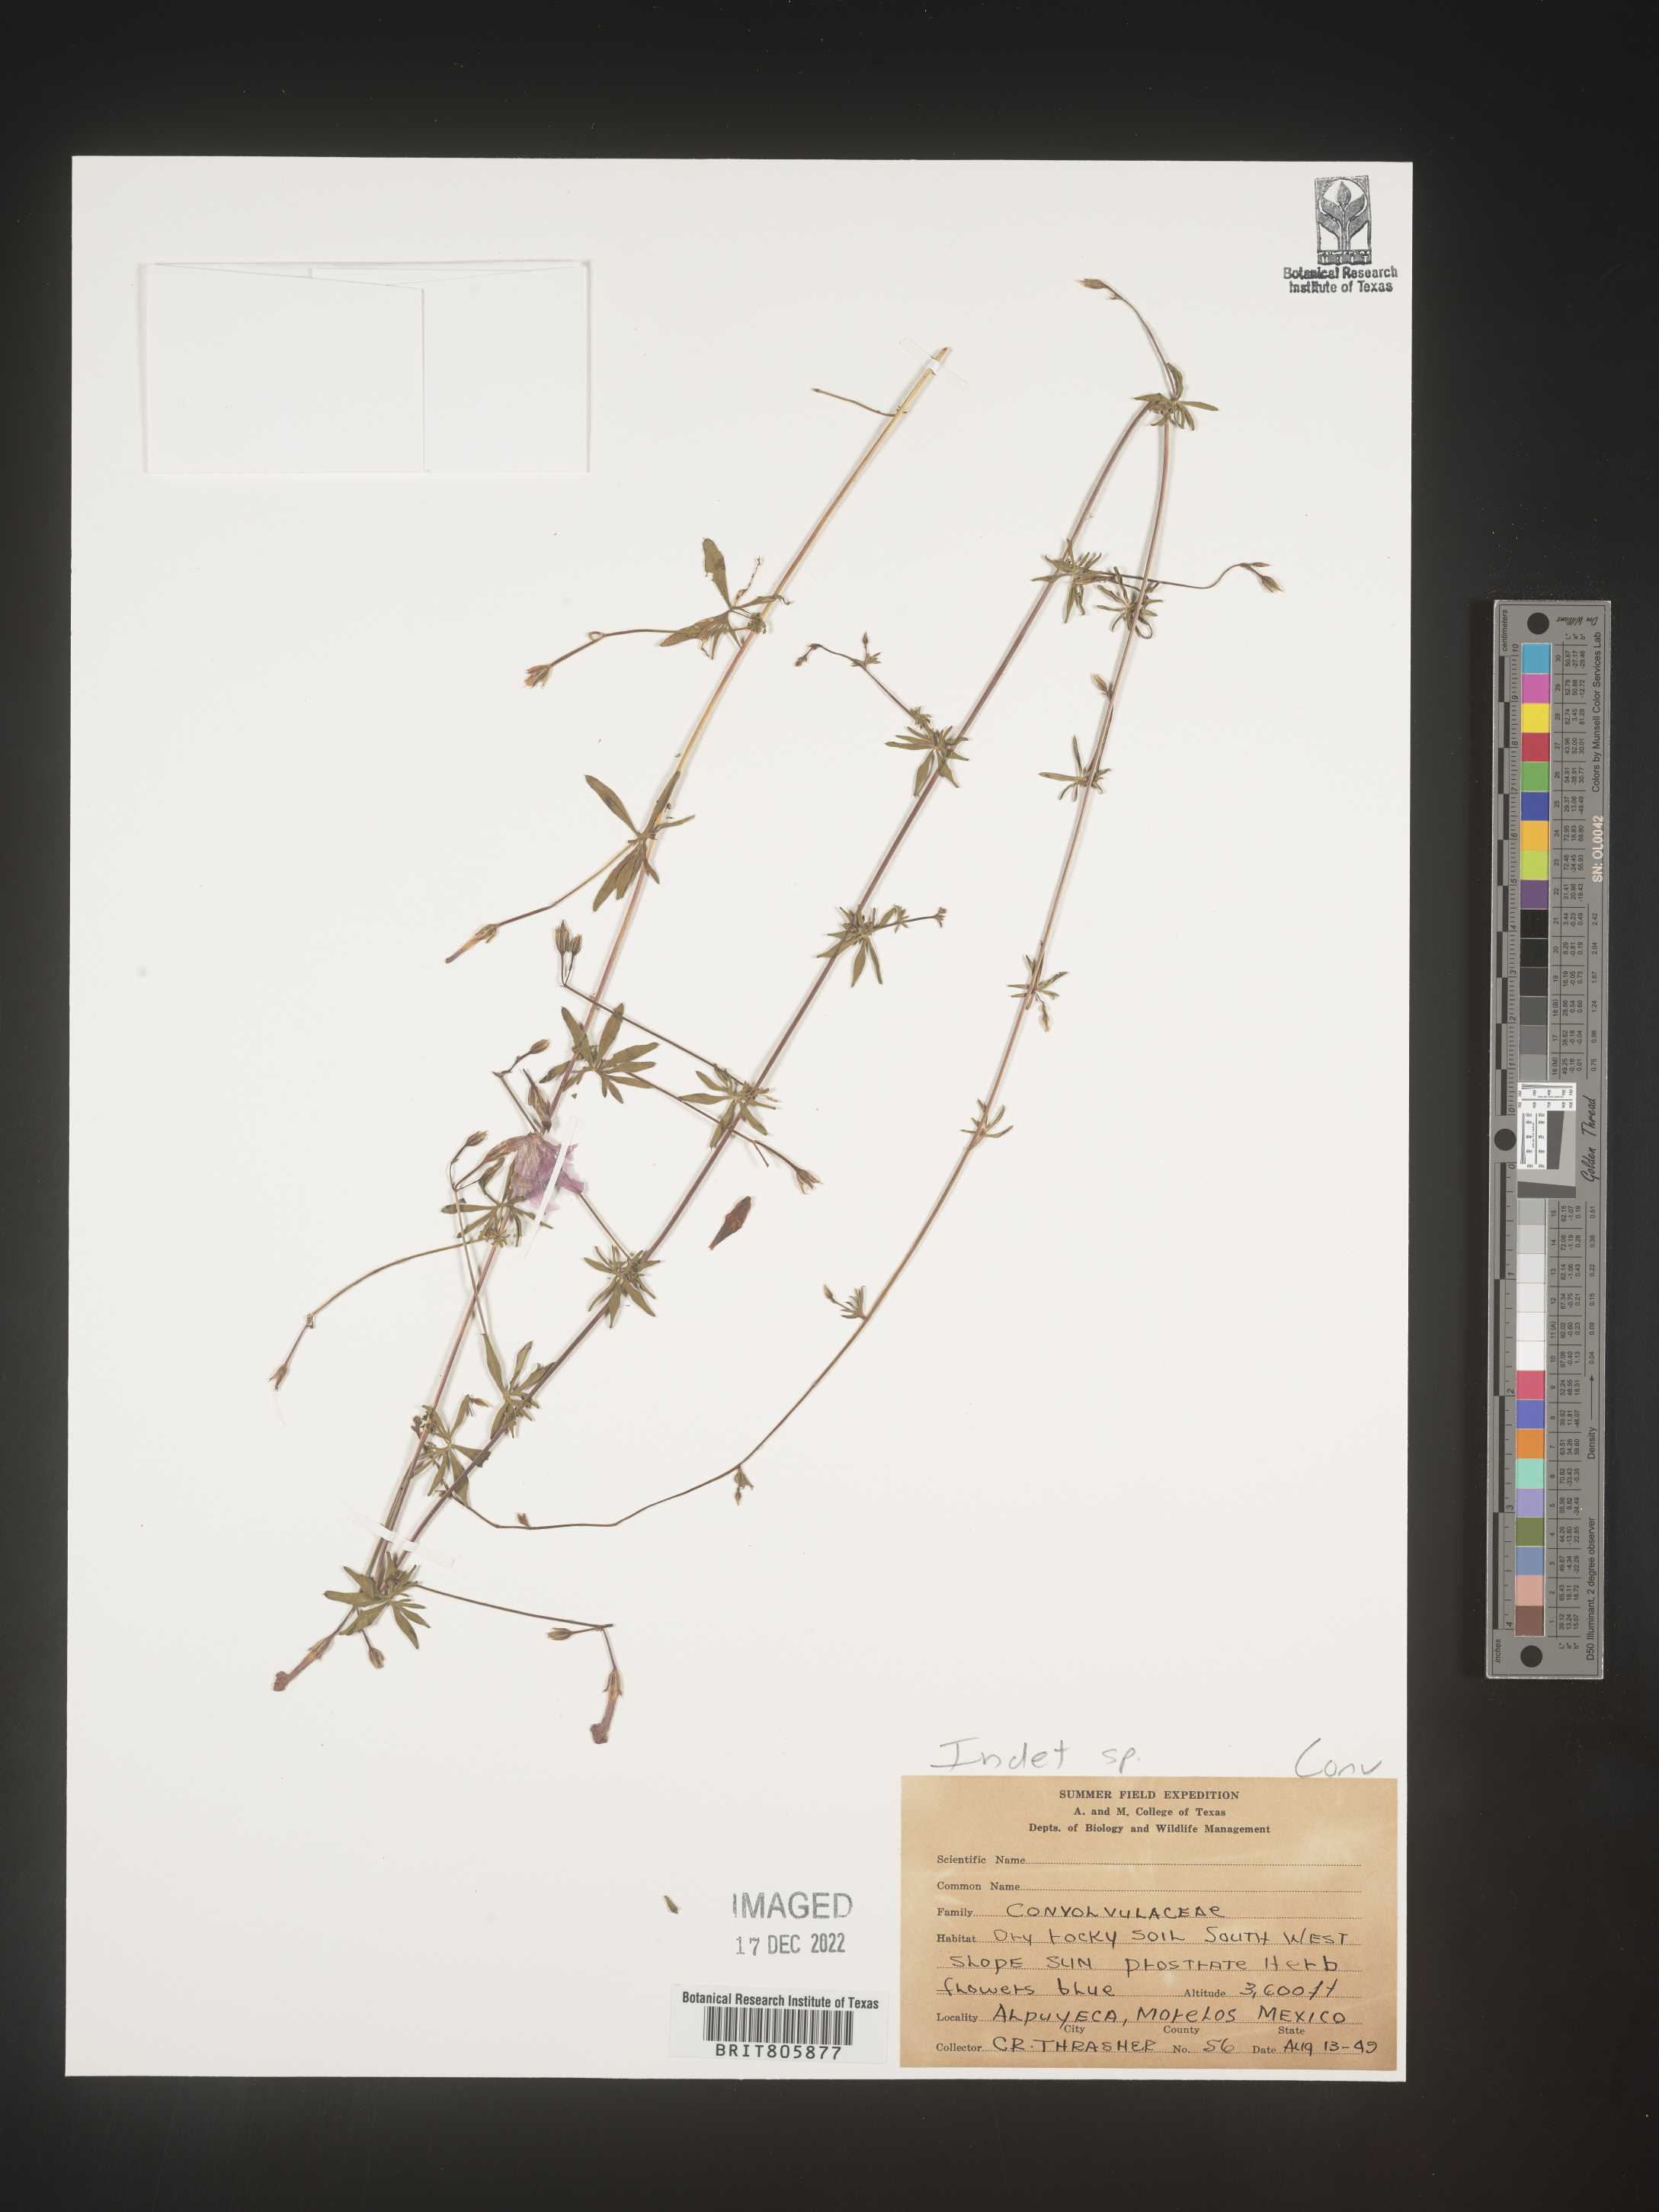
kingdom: Plantae
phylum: Tracheophyta
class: Magnoliopsida
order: Solanales
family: Convolvulaceae
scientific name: Convolvulaceae
